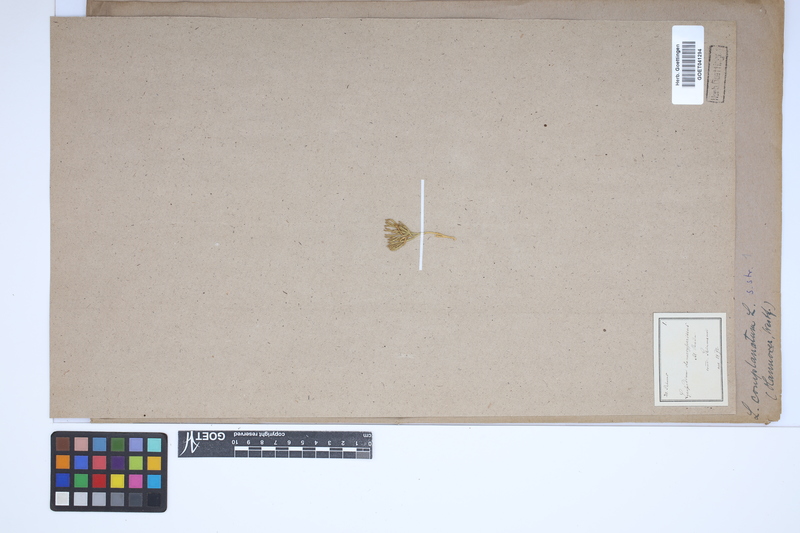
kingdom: Plantae
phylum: Tracheophyta
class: Lycopodiopsida
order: Lycopodiales
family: Lycopodiaceae
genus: Diphasiastrum
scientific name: Diphasiastrum zeilleri
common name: Zeiller's clubmoss
